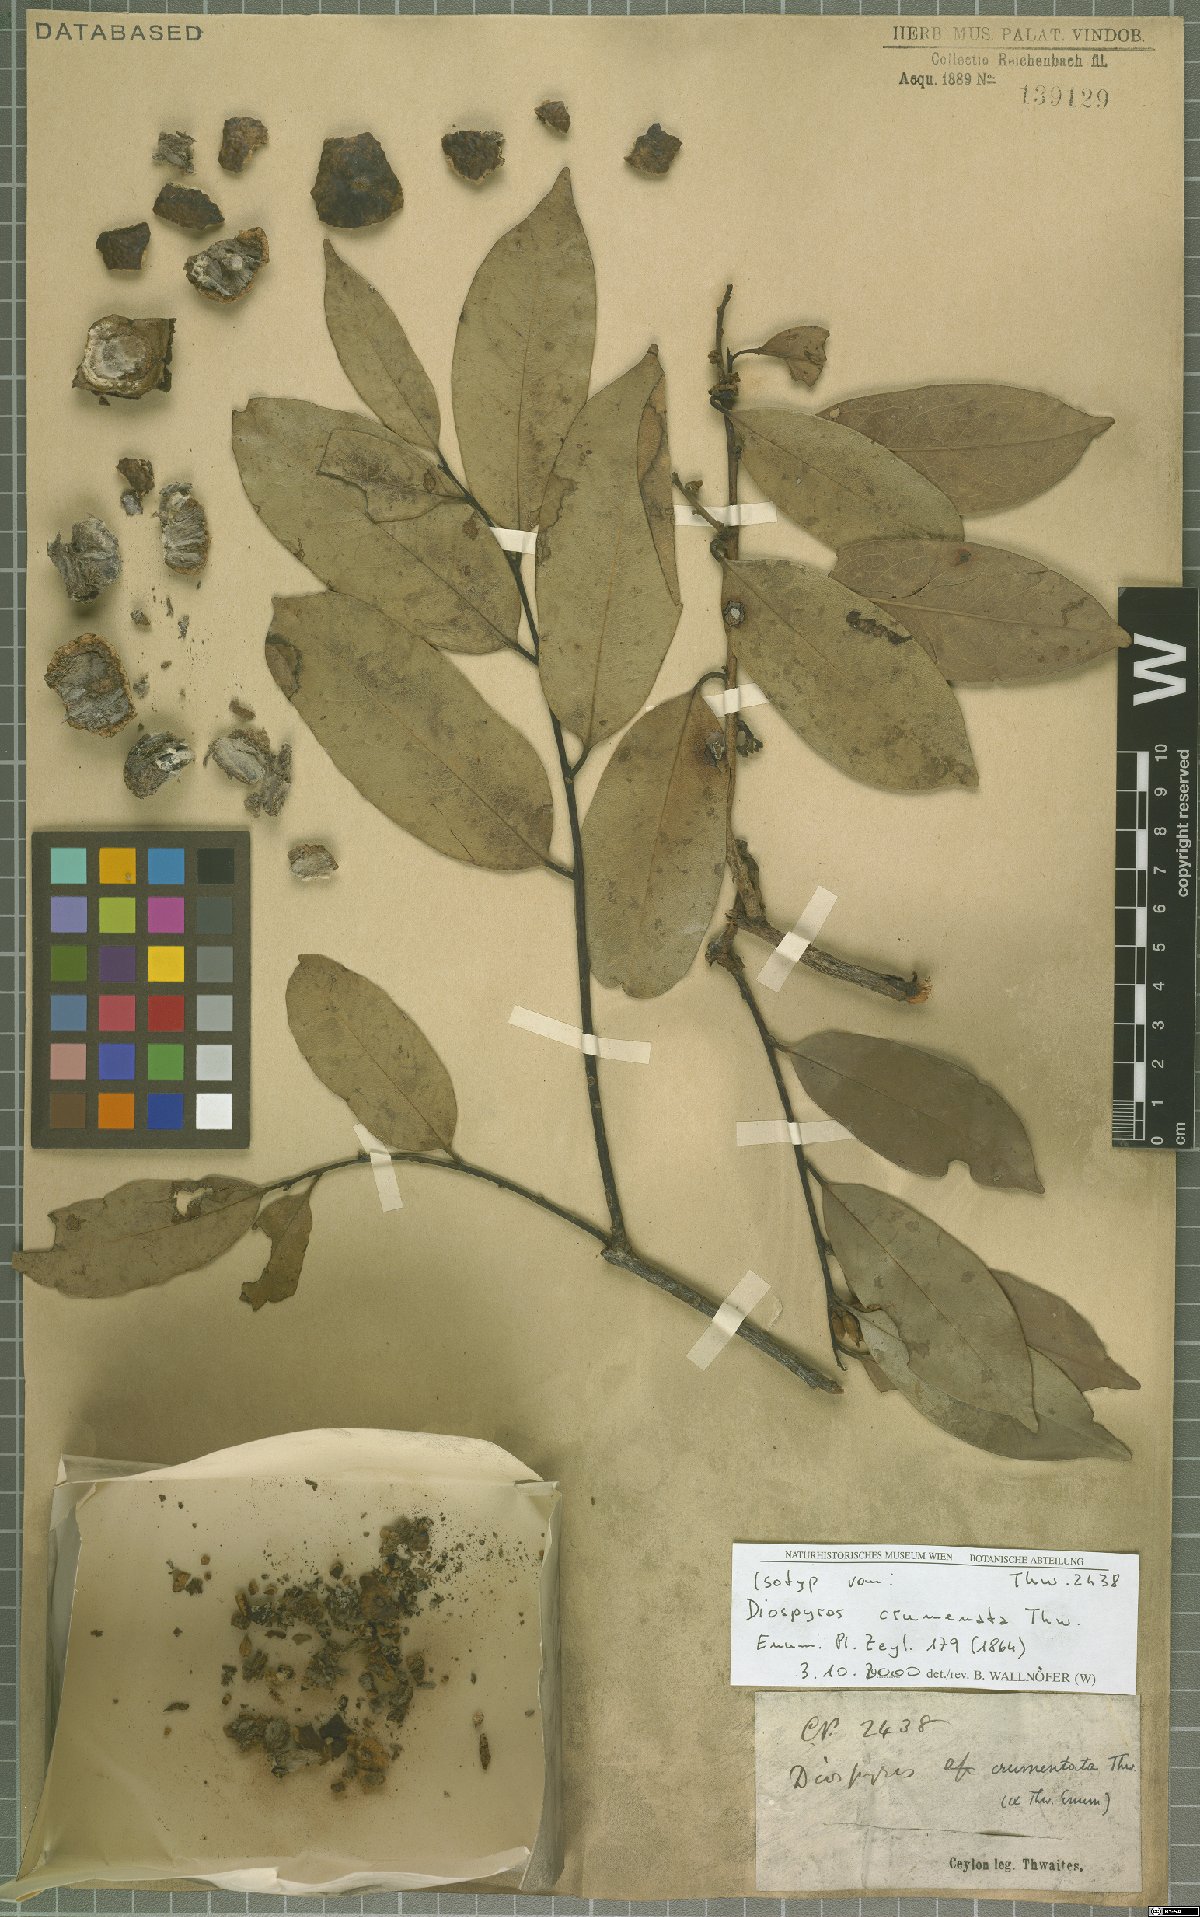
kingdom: Plantae
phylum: Tracheophyta
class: Magnoliopsida
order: Ericales
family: Ebenaceae
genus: Diospyros
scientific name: Diospyros crumenata
